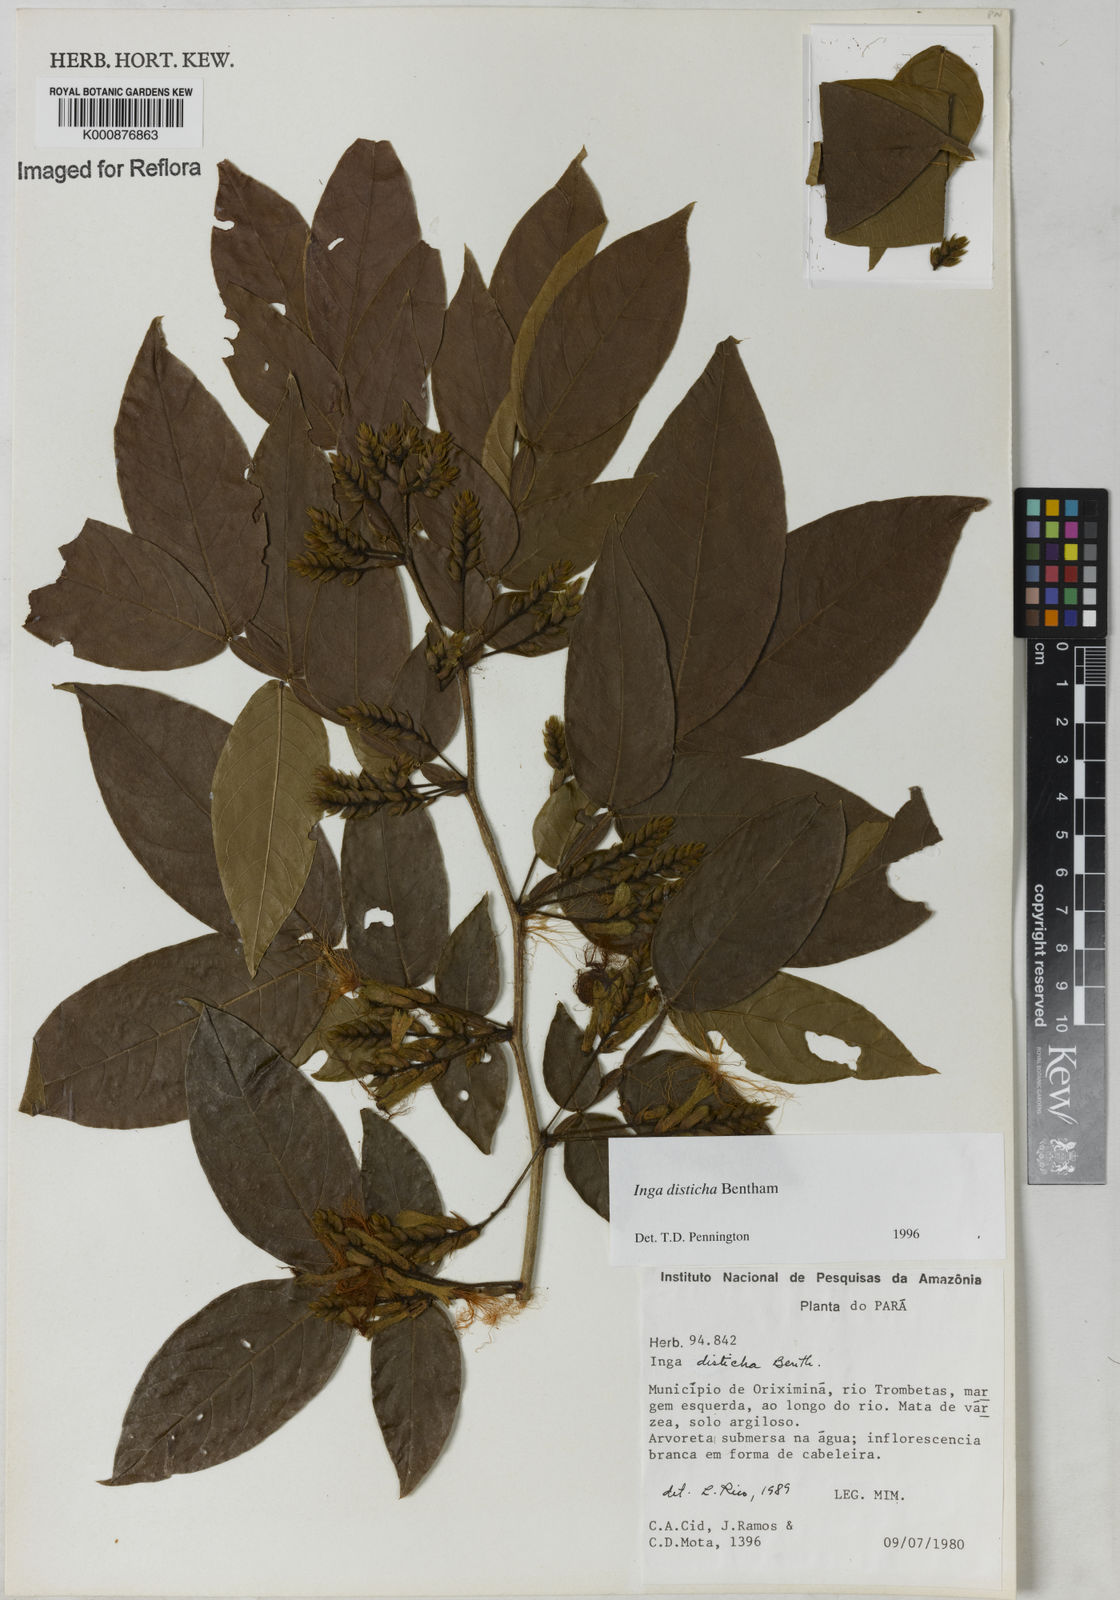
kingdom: Plantae
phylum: Tracheophyta
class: Magnoliopsida
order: Fabales
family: Fabaceae
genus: Inga
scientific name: Inga disticha
